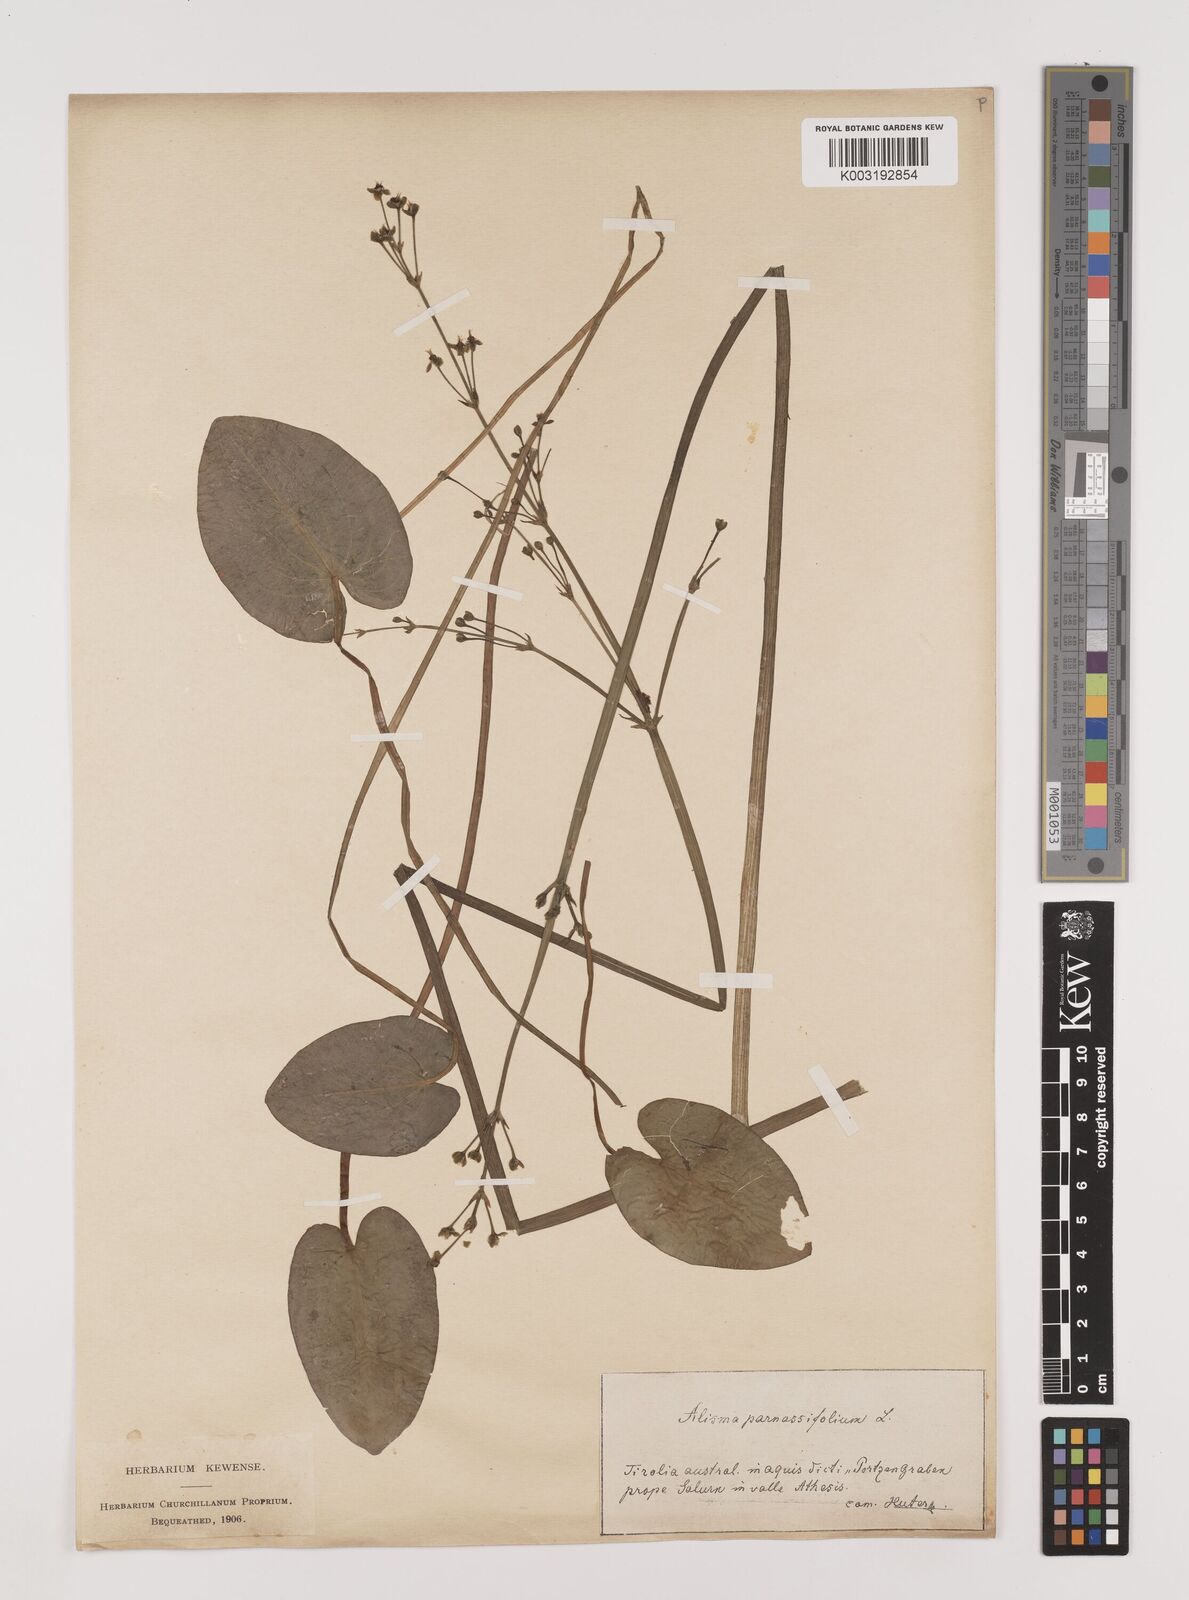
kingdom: Plantae
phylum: Tracheophyta
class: Liliopsida
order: Alismatales
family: Alismataceae
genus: Caldesia
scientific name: Caldesia parnassifolia
